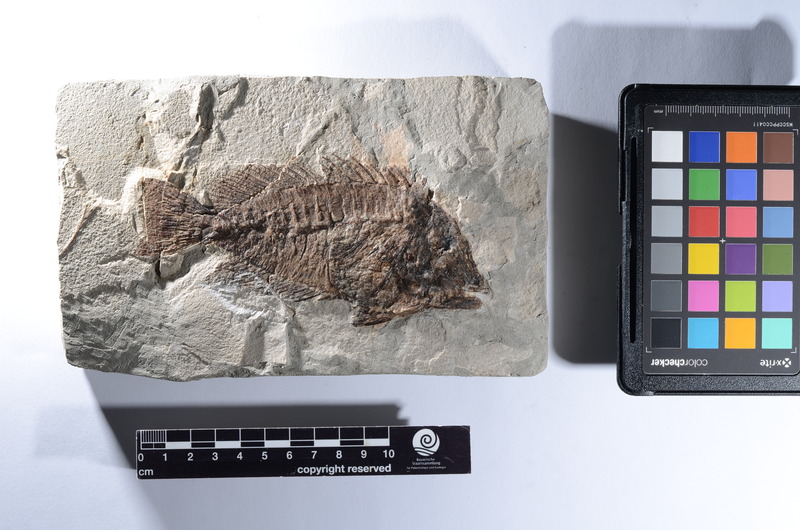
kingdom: Animalia
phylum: Chordata
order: Perciformes
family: Acanthuridae
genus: Acanthurus
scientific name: Acanthurus tenuis
